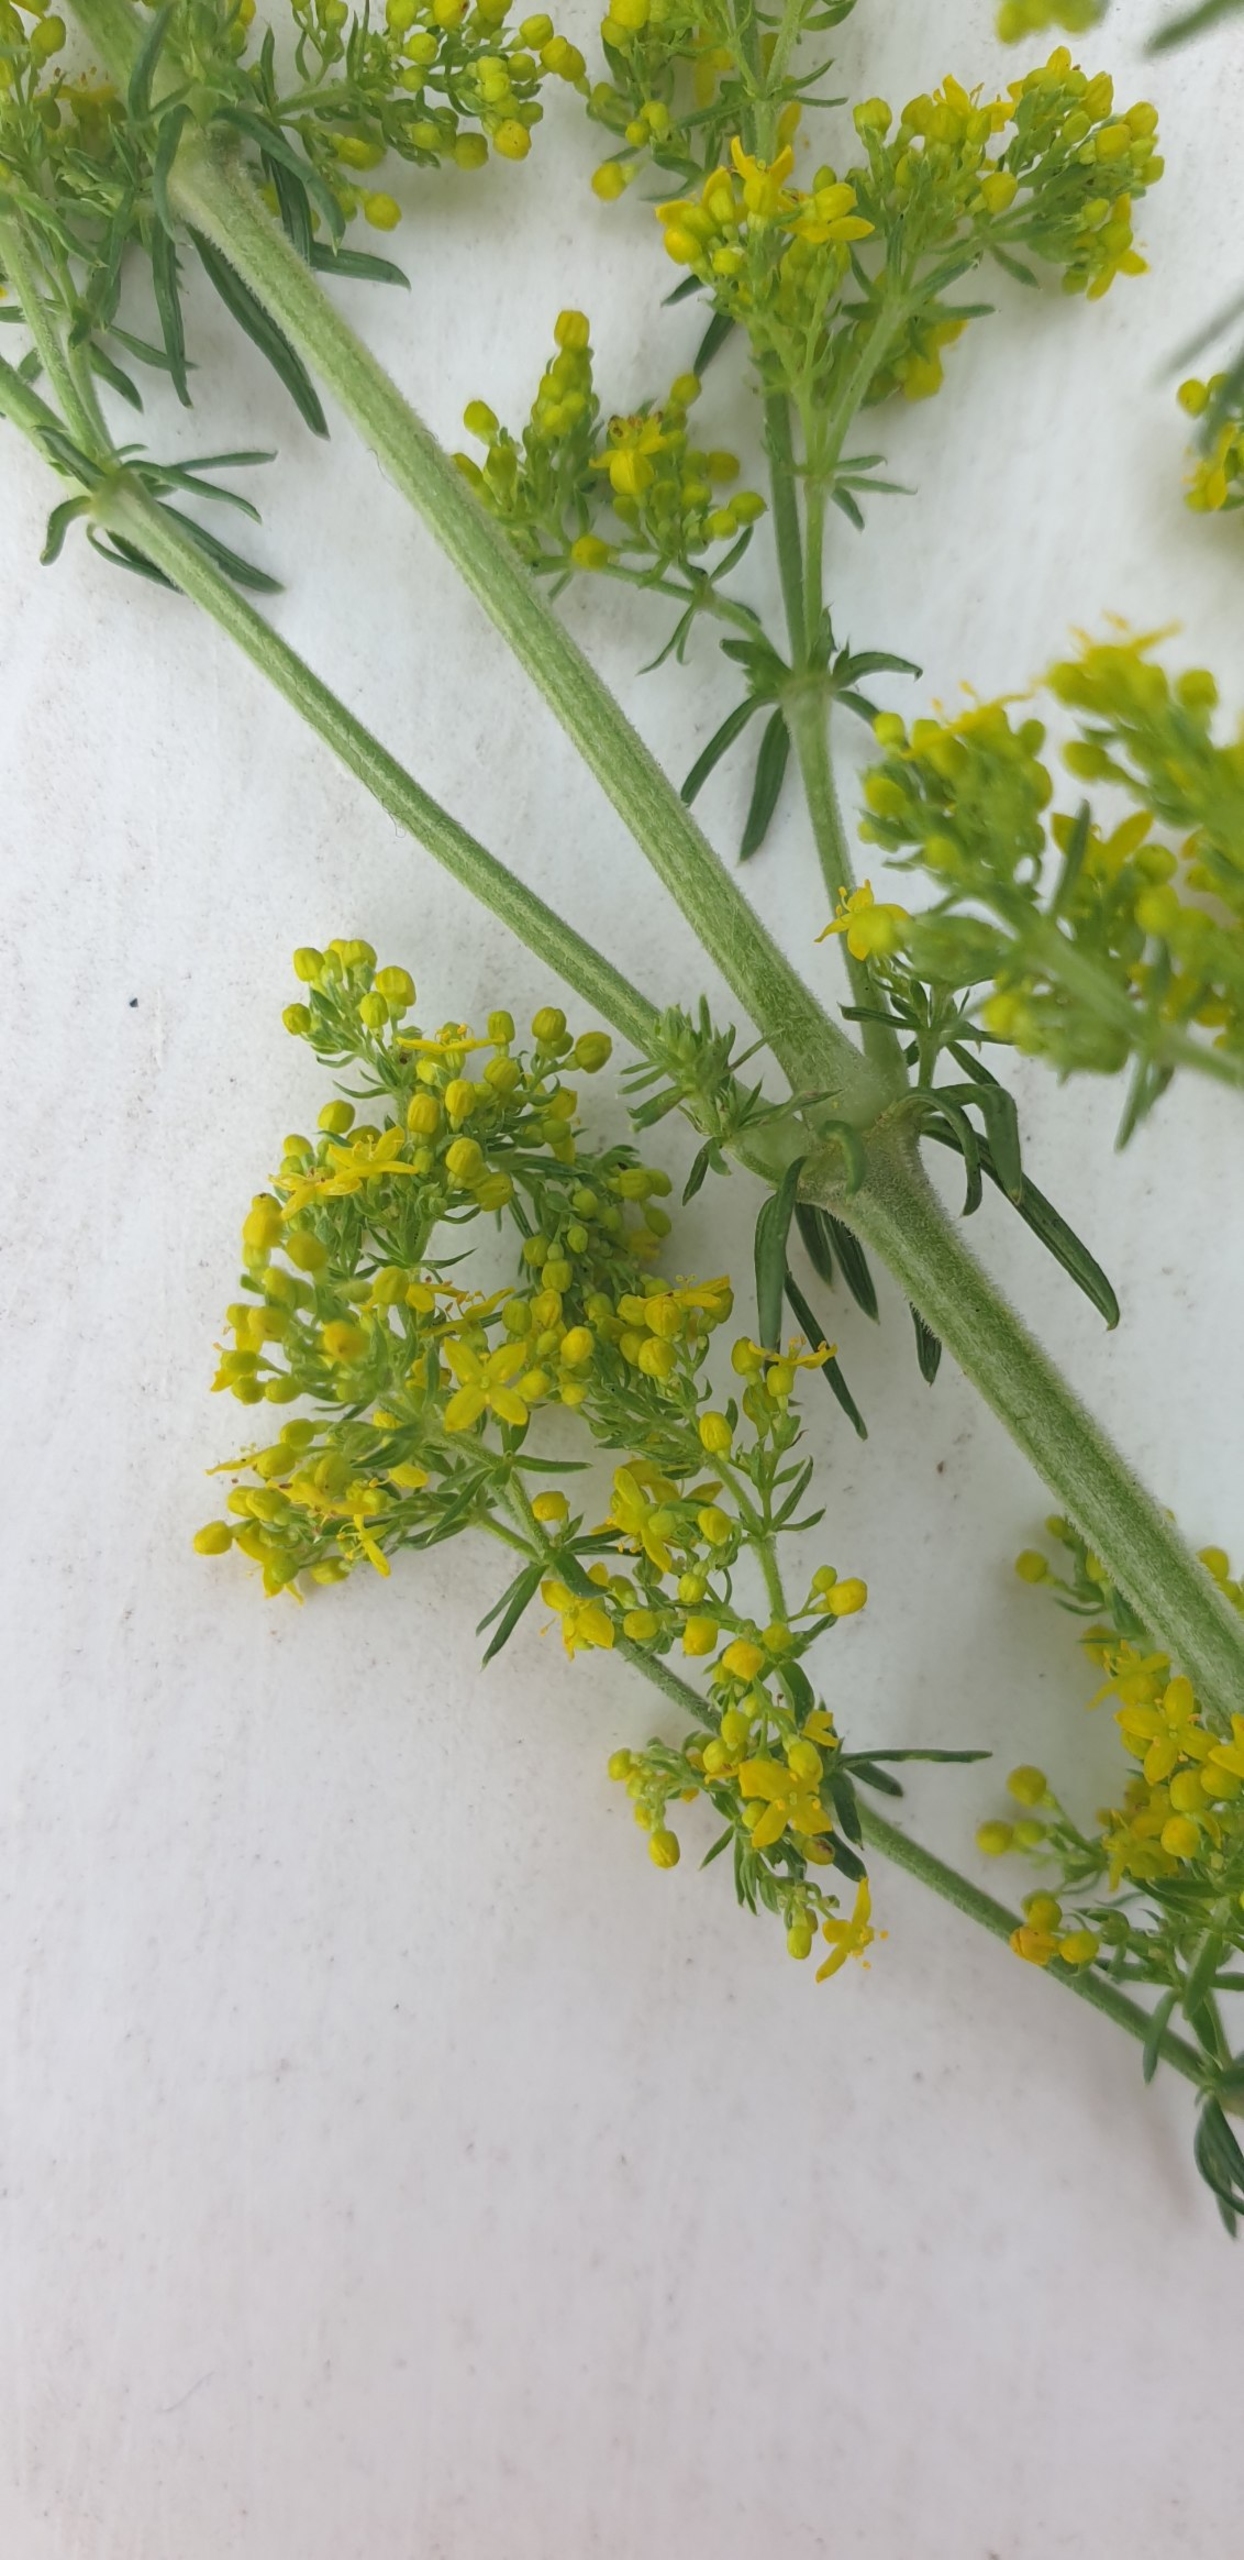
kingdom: Plantae
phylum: Tracheophyta
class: Magnoliopsida
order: Gentianales
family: Rubiaceae
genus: Galium
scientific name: Galium verum
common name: Gul snerre
